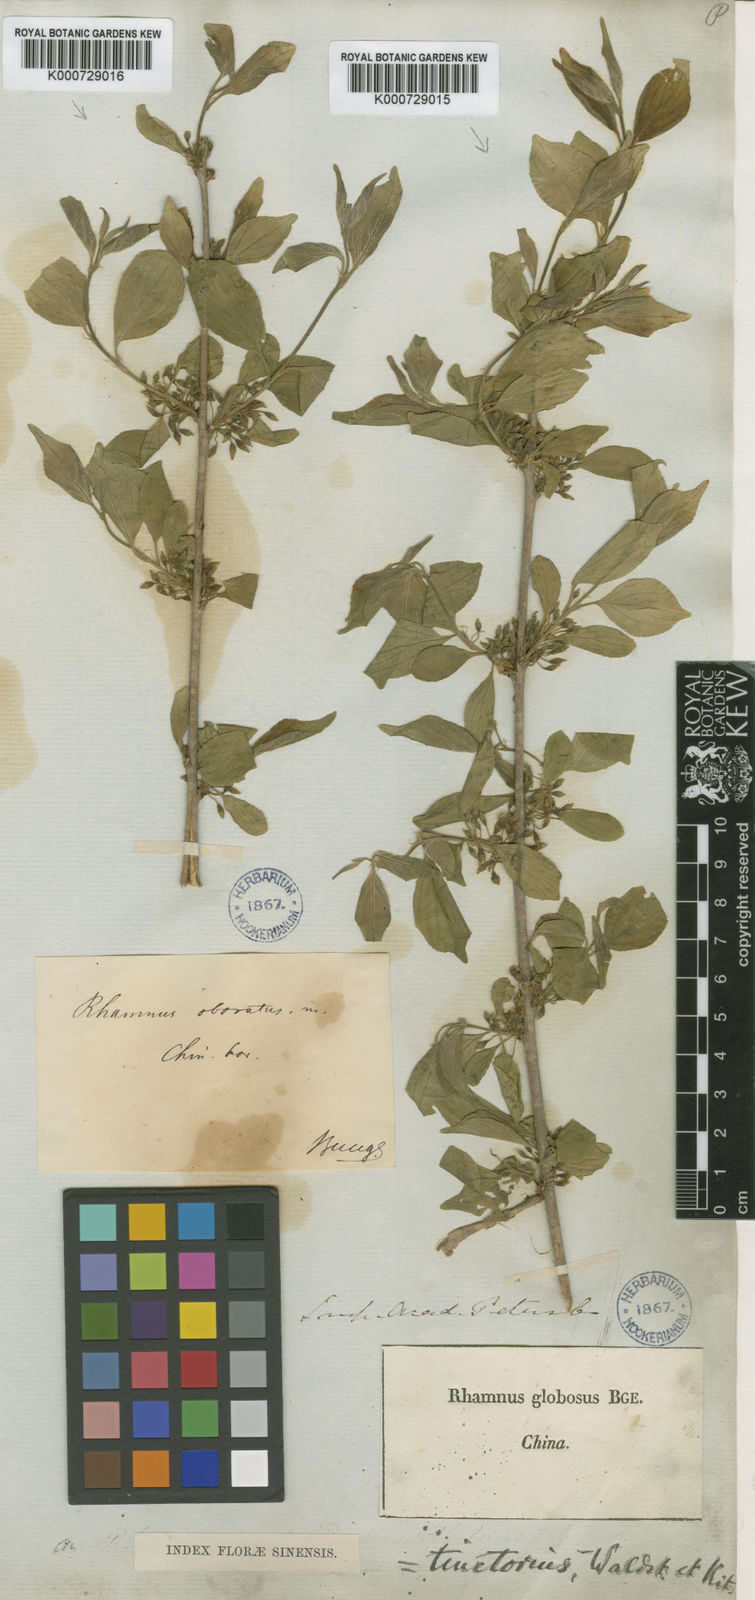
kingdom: Plantae
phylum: Tracheophyta
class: Magnoliopsida
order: Rosales
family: Rhamnaceae
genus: Rhamnus
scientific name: Rhamnus globosa
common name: Lokao
